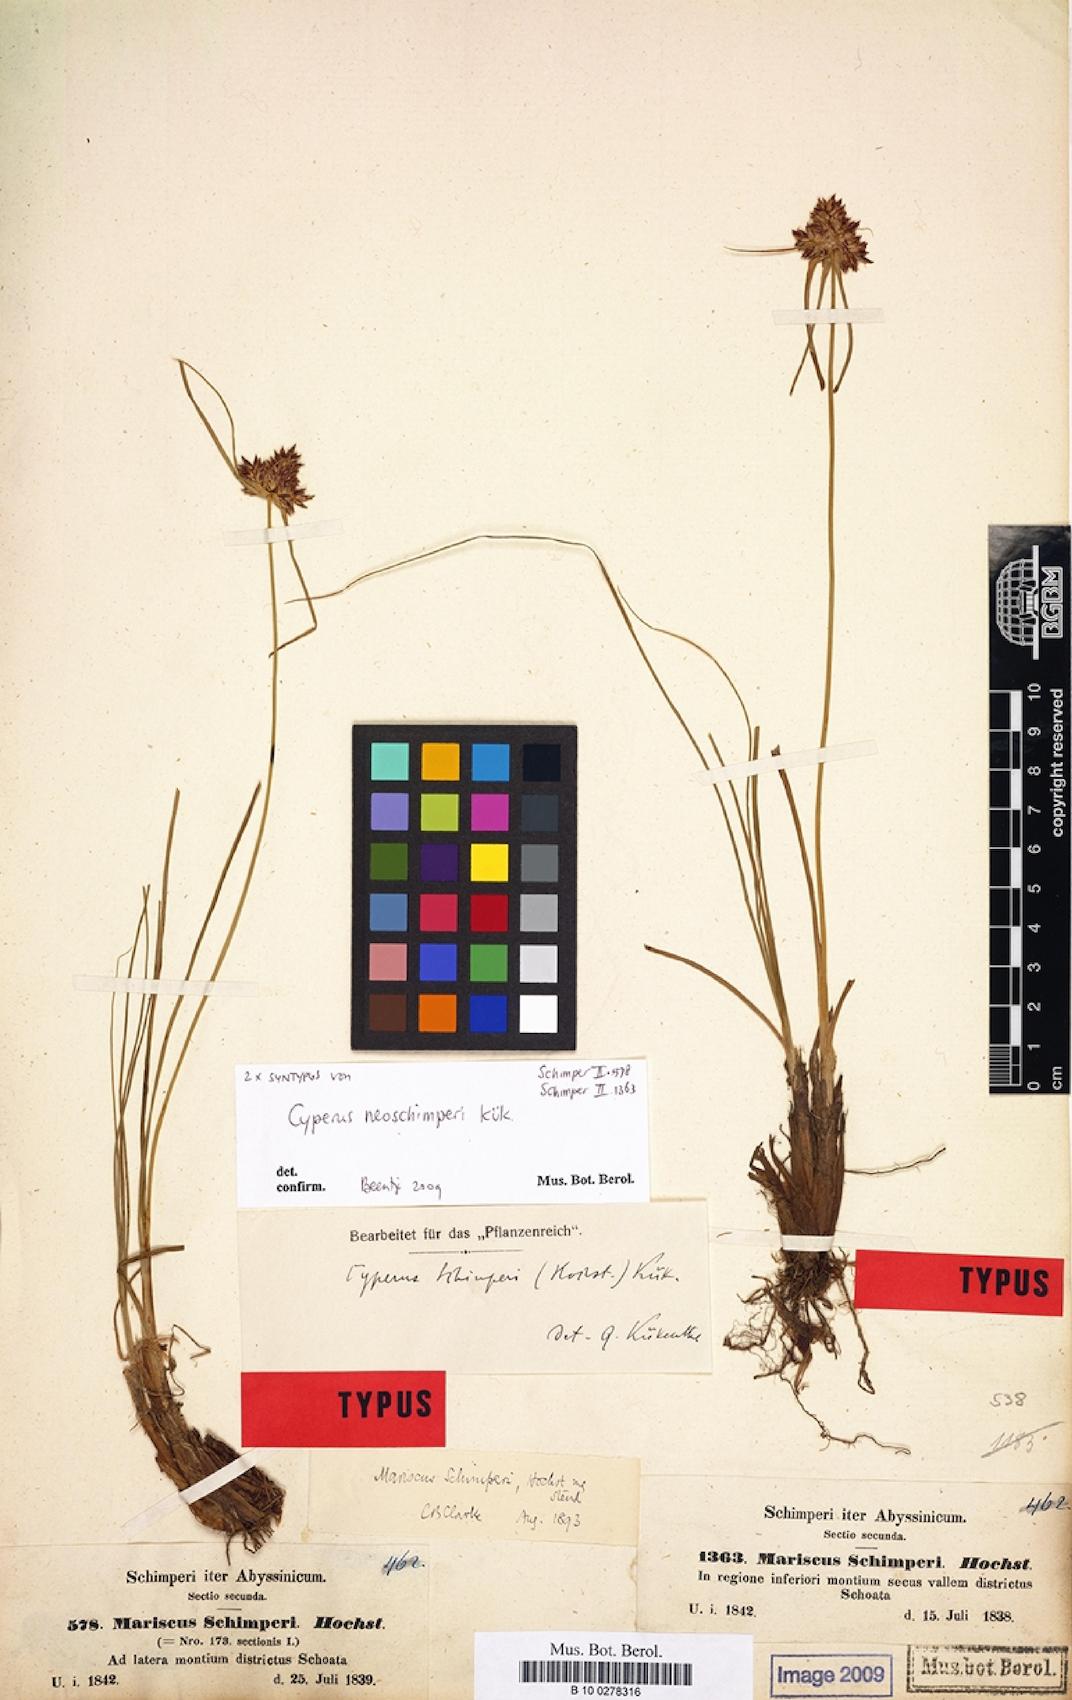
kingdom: Plantae
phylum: Tracheophyta
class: Liliopsida
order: Poales
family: Cyperaceae
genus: Cyperus
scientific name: Cyperus cruentus
